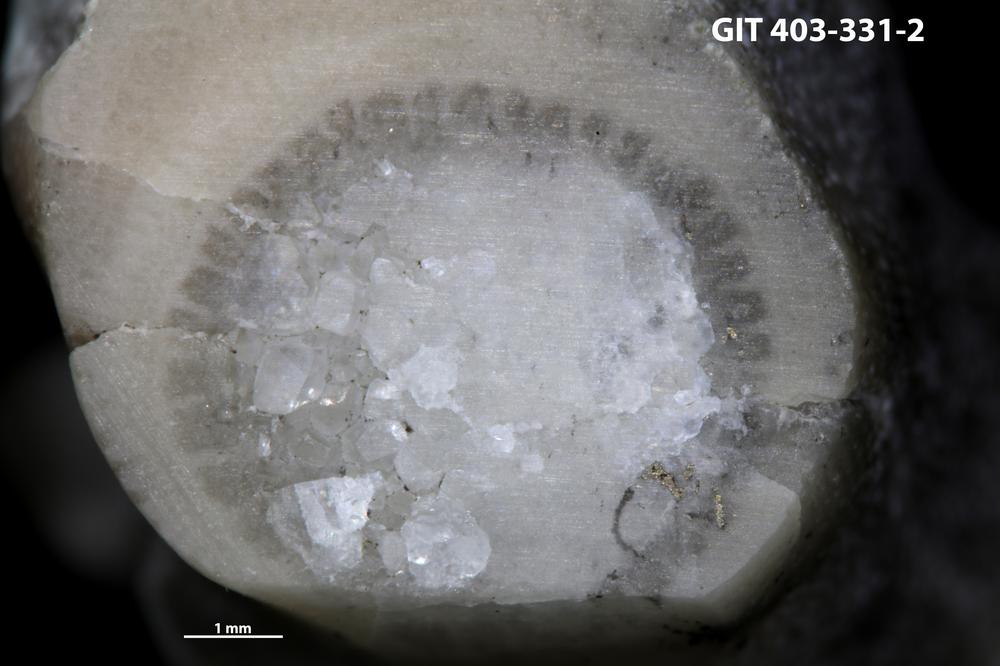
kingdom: Animalia
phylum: Cnidaria
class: Anthozoa
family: Tryplasmatidae
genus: Tryplasma
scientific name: Tryplasma
